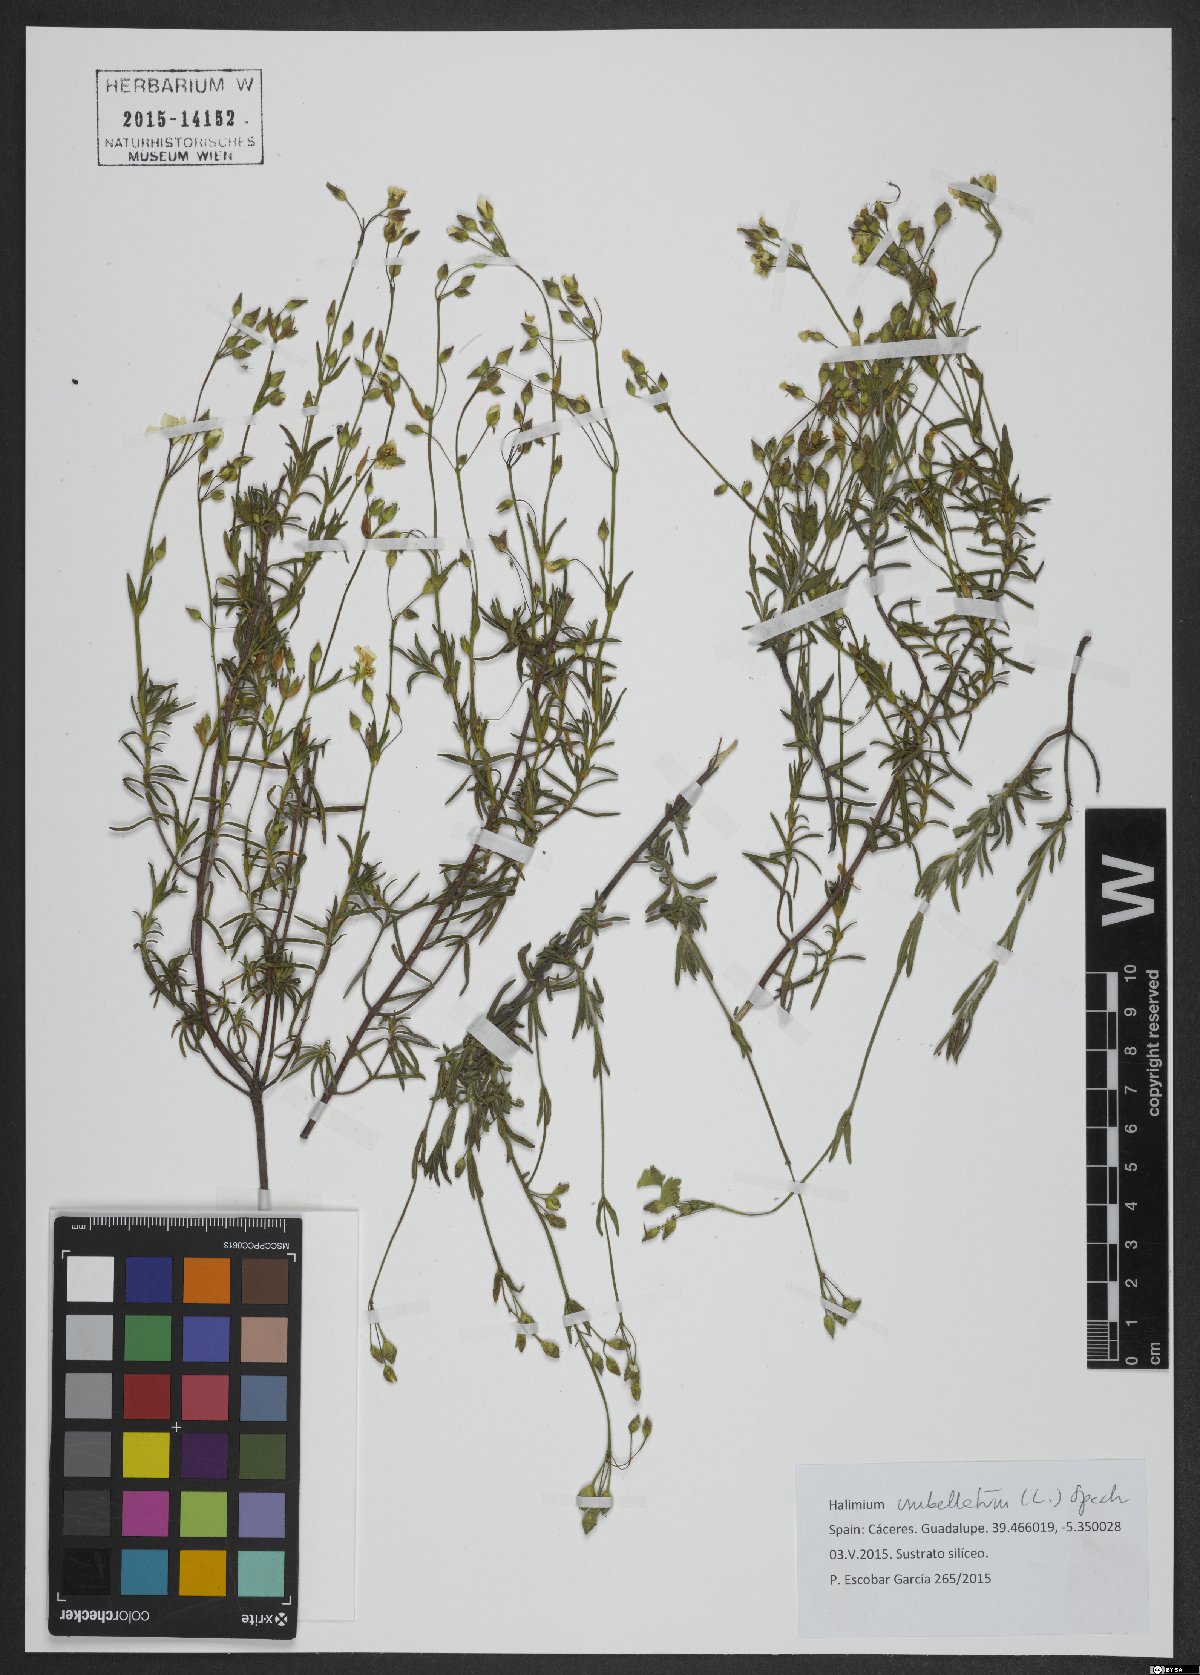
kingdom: Plantae
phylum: Tracheophyta
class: Magnoliopsida
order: Malvales
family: Cistaceae
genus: Tuberaria
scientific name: Tuberaria guttata
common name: Spotted rock-rose
